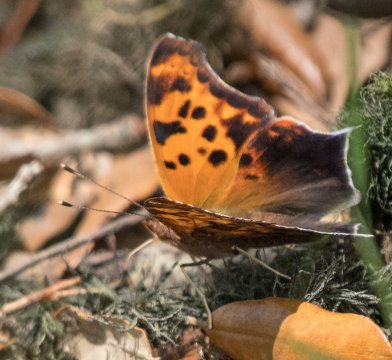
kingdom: Animalia
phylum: Arthropoda
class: Insecta
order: Lepidoptera
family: Nymphalidae
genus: Polygonia
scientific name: Polygonia interrogationis
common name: Question Mark
